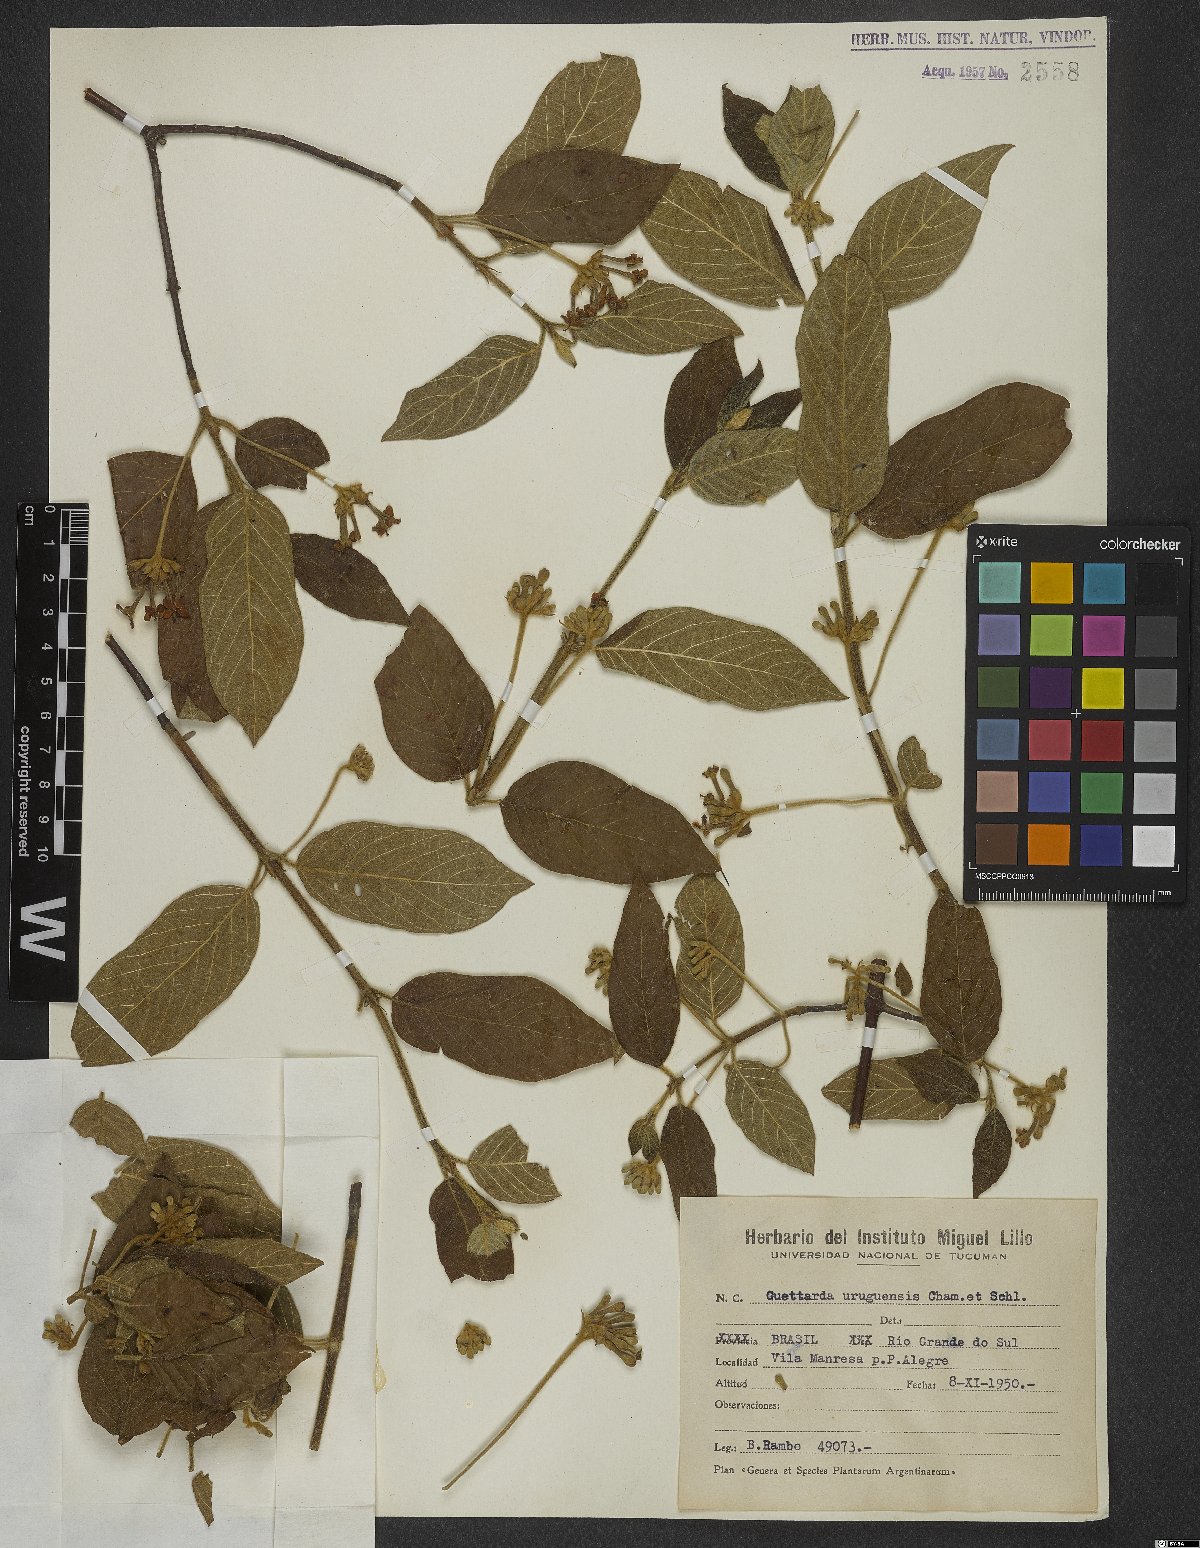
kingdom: Plantae
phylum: Tracheophyta
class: Magnoliopsida
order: Gentianales
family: Rubiaceae
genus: Guettarda
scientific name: Guettarda uruguensis
